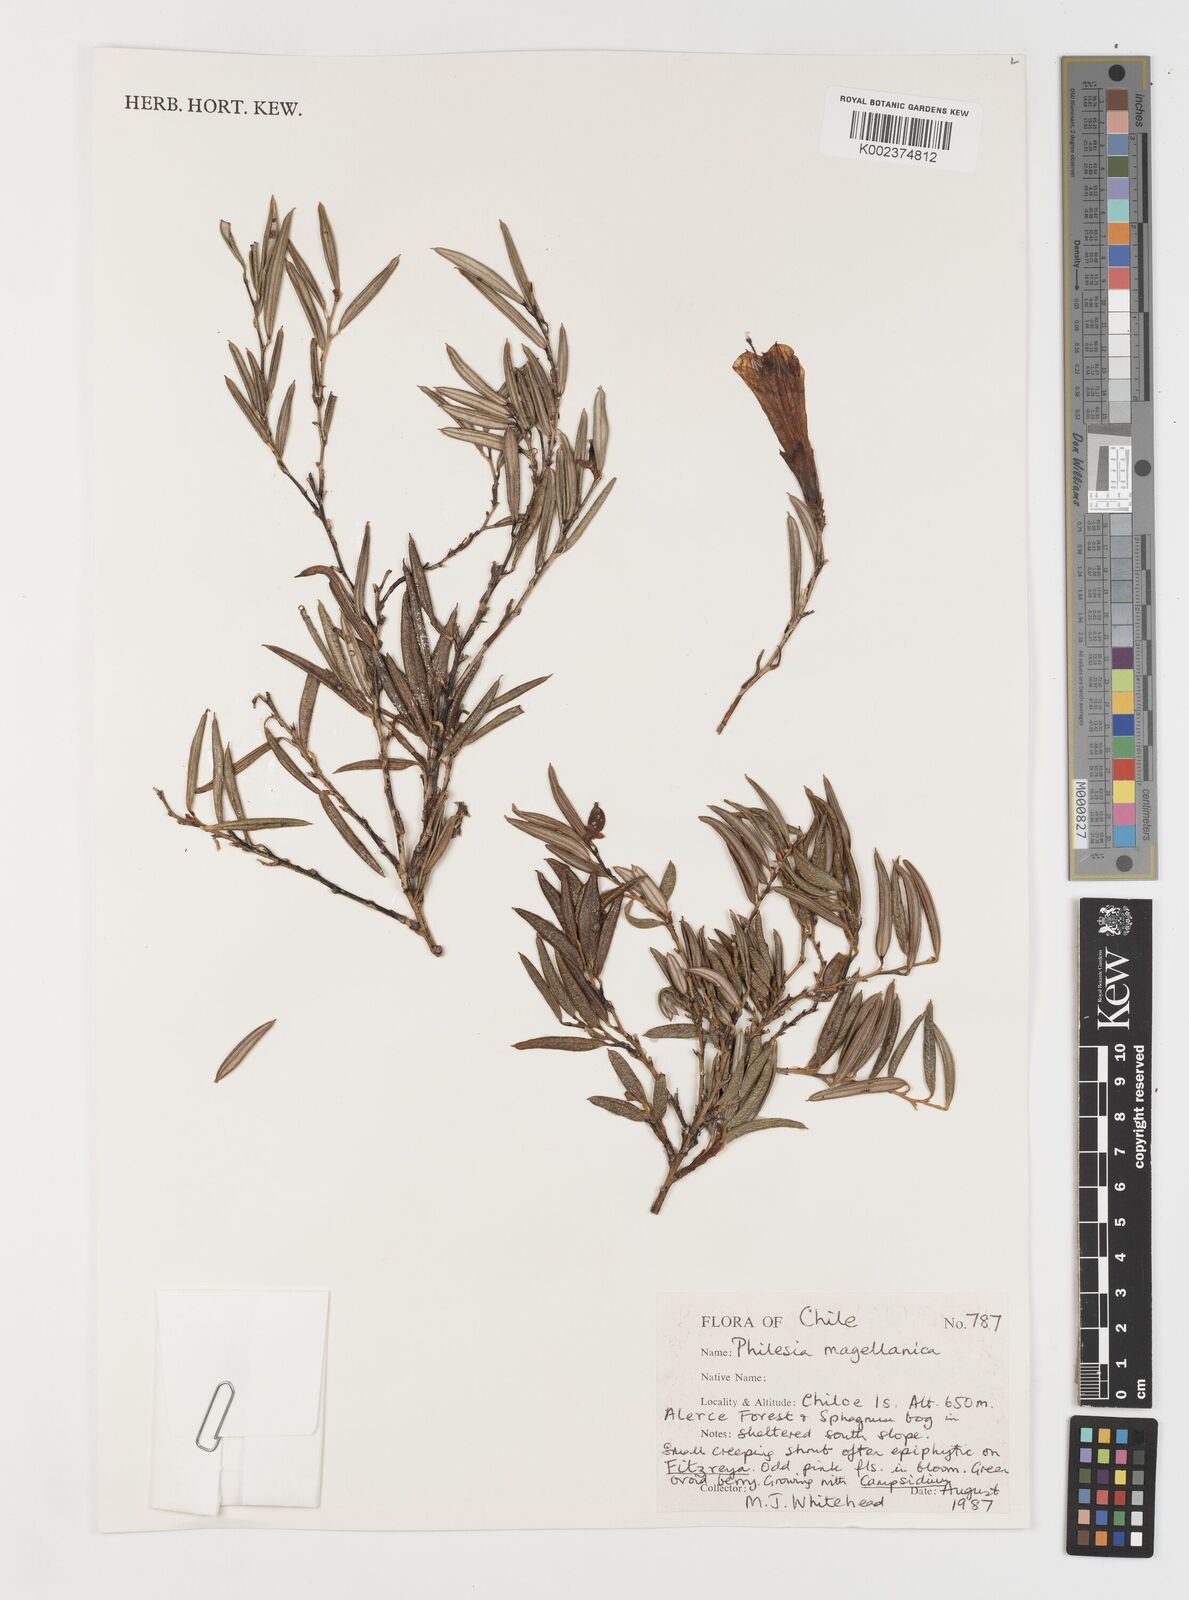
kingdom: Plantae
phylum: Tracheophyta
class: Liliopsida
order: Liliales
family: Philesiaceae
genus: Philesia
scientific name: Philesia magellanica
